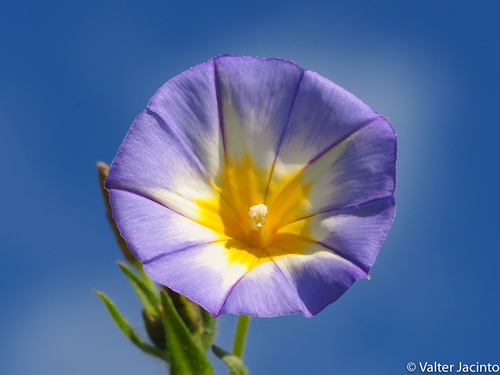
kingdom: Plantae
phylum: Tracheophyta
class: Magnoliopsida
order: Solanales
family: Convolvulaceae
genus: Convolvulus
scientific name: Convolvulus meonanthus
